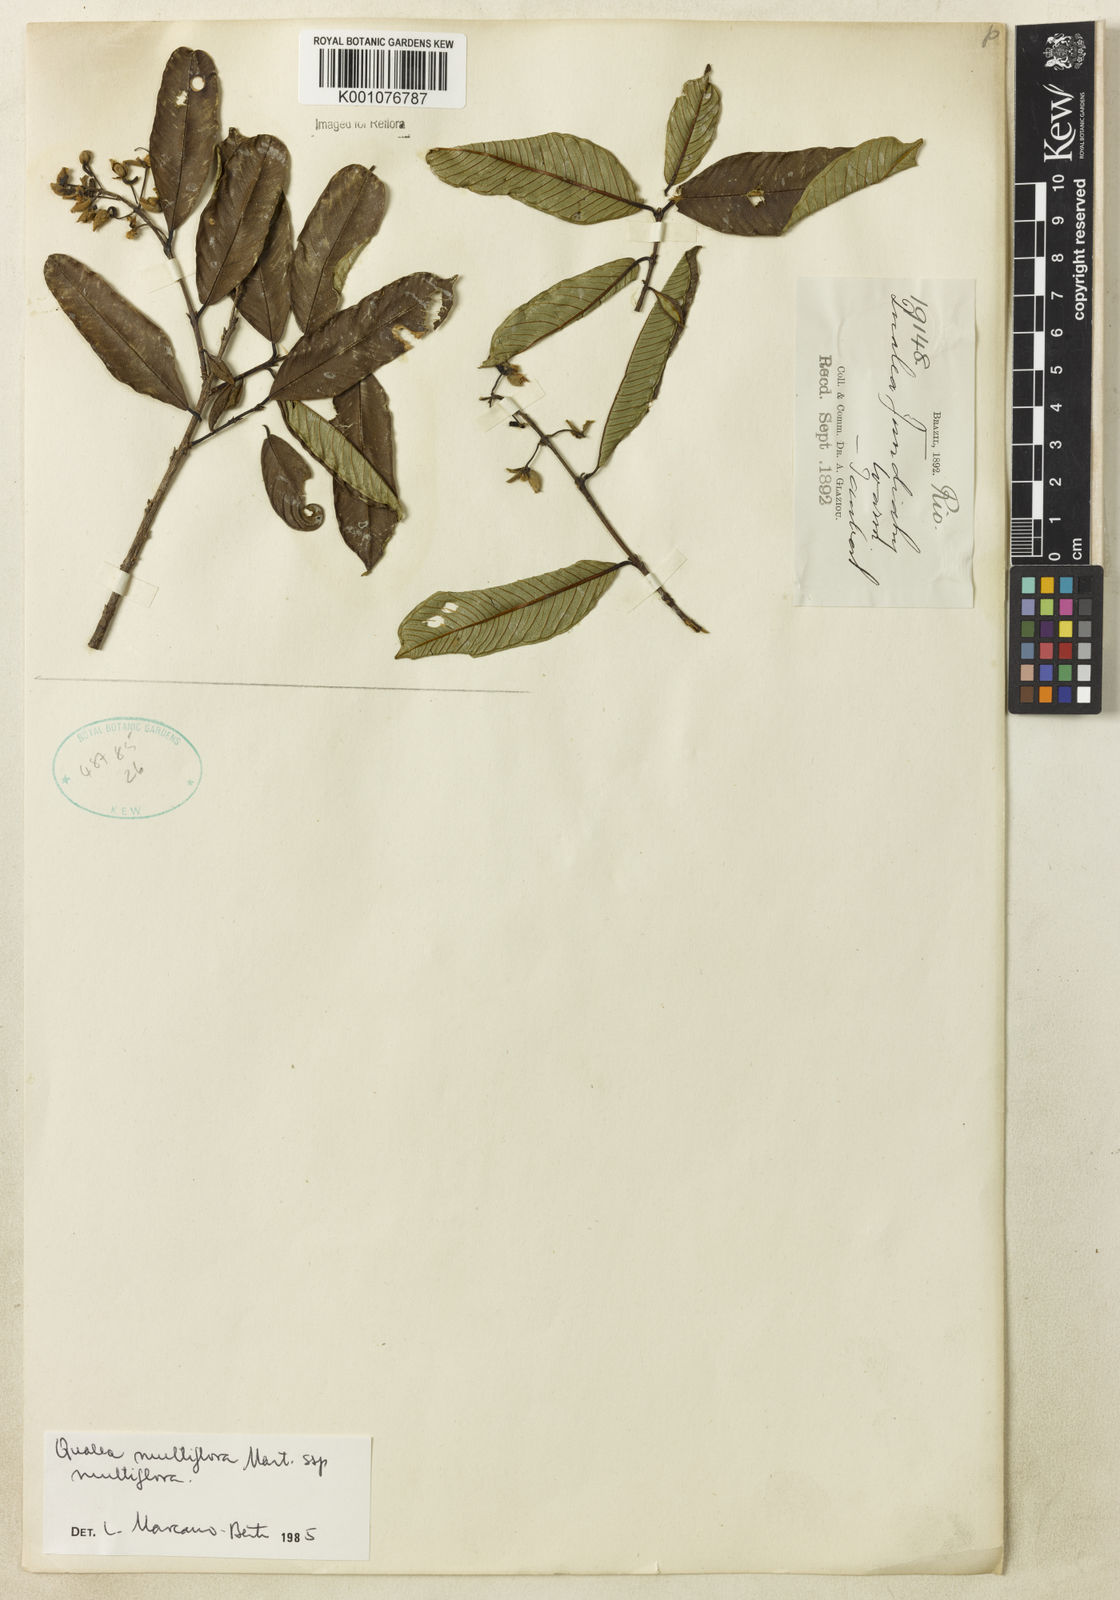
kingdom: Plantae
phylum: Tracheophyta
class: Magnoliopsida
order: Myrtales
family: Vochysiaceae
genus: Qualea
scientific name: Qualea multiflora
